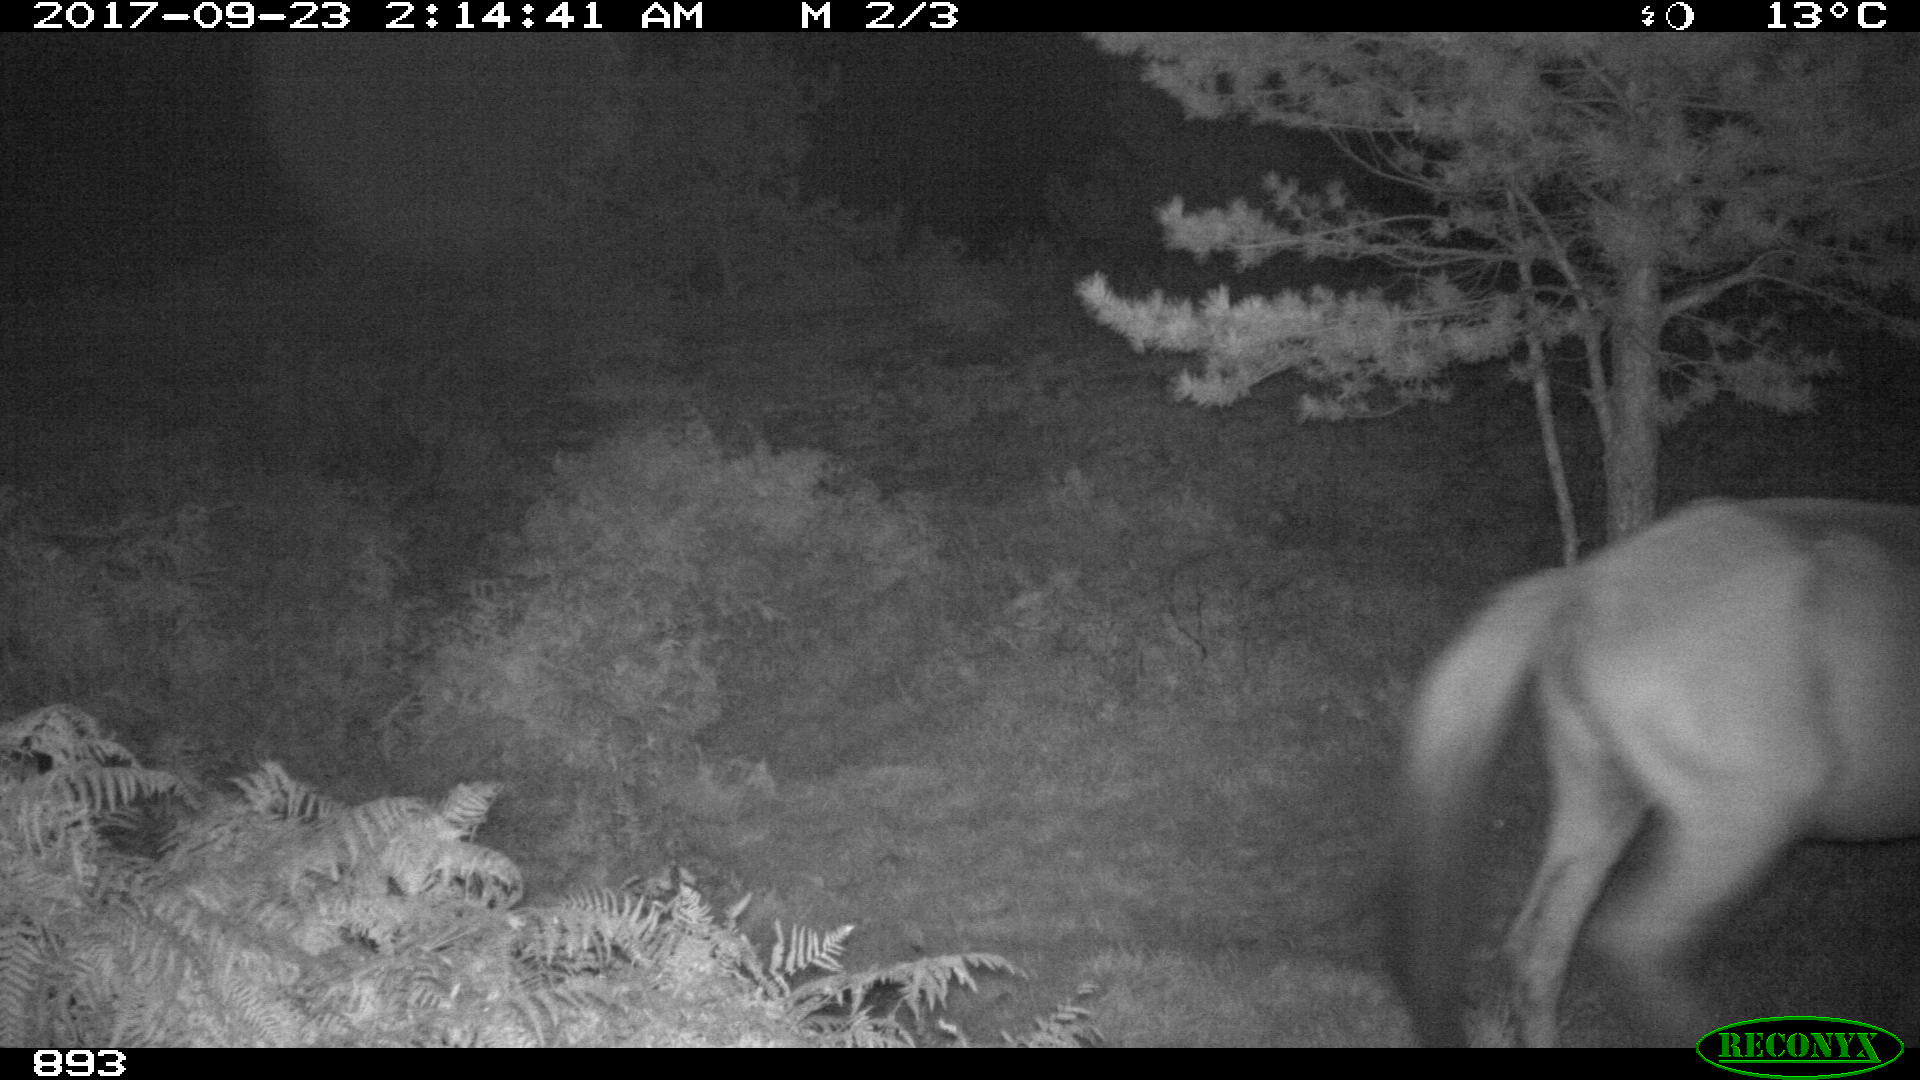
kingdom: Animalia
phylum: Chordata
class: Mammalia
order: Perissodactyla
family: Equidae
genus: Equus
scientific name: Equus caballus
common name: Horse
